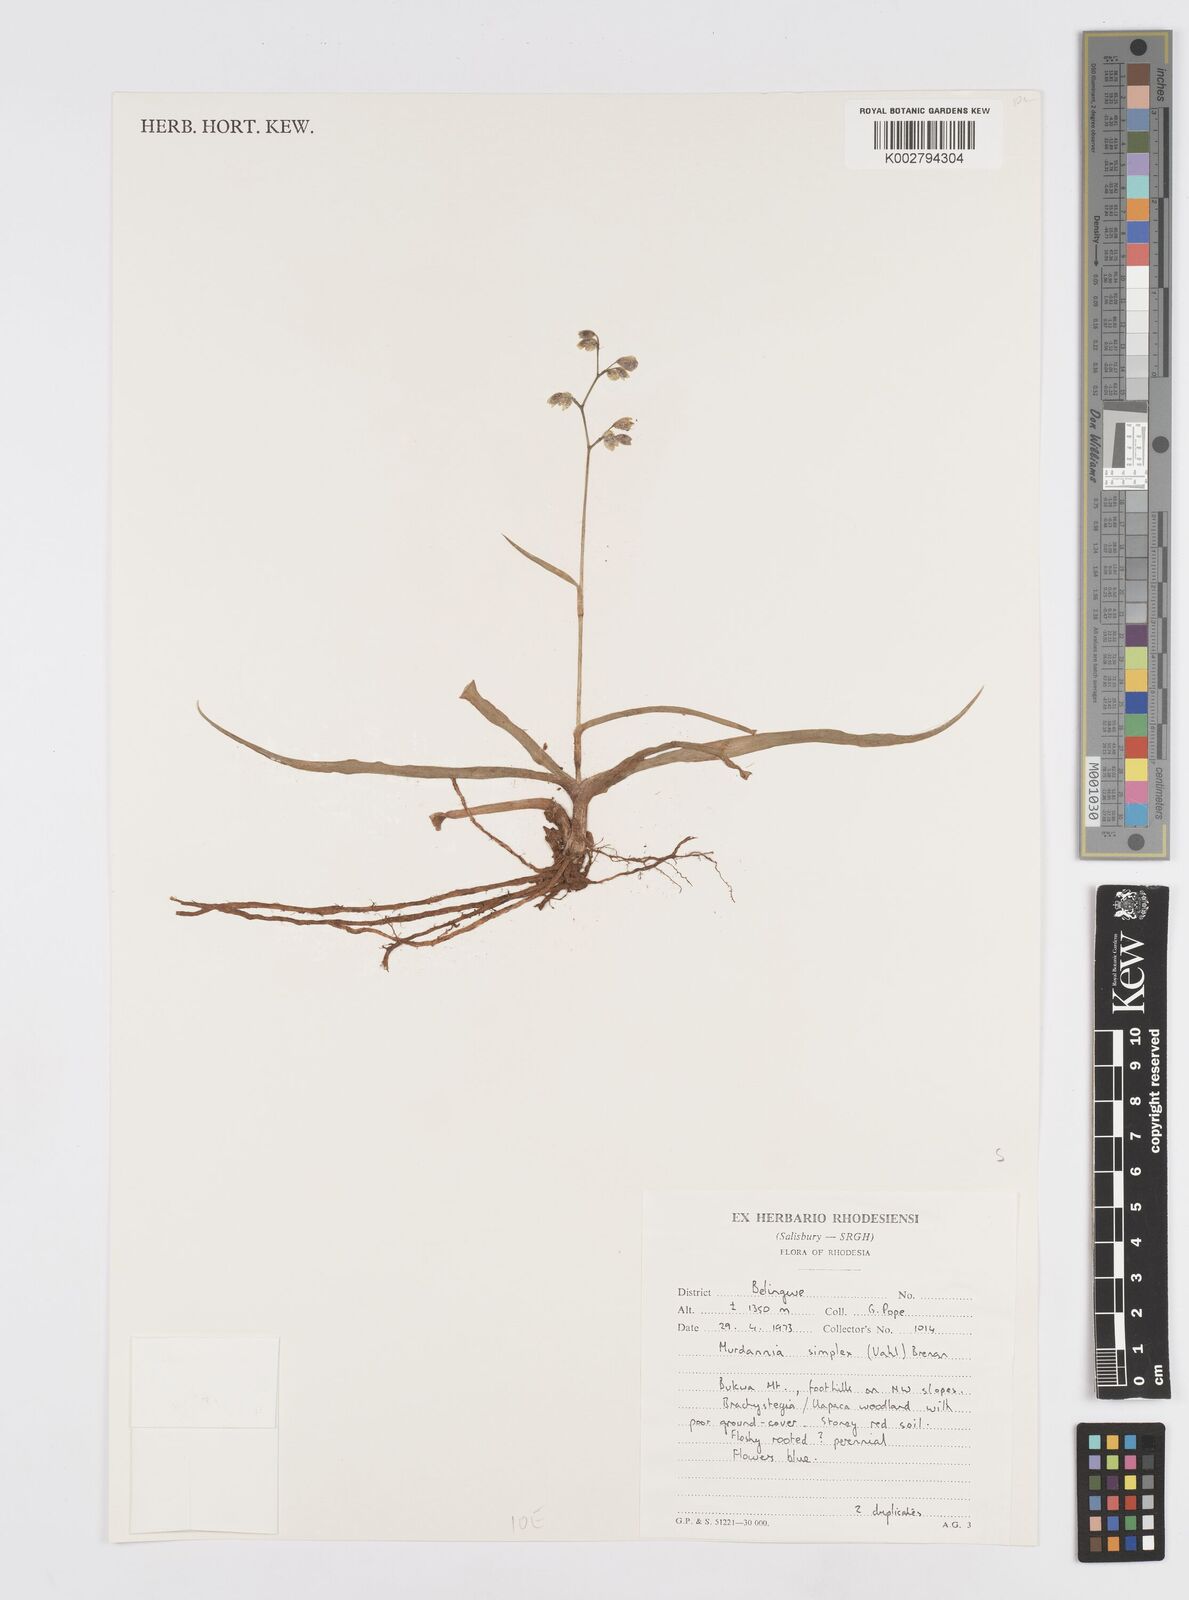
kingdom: Plantae
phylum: Tracheophyta
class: Liliopsida
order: Commelinales
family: Commelinaceae
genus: Murdannia
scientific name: Murdannia simplex
